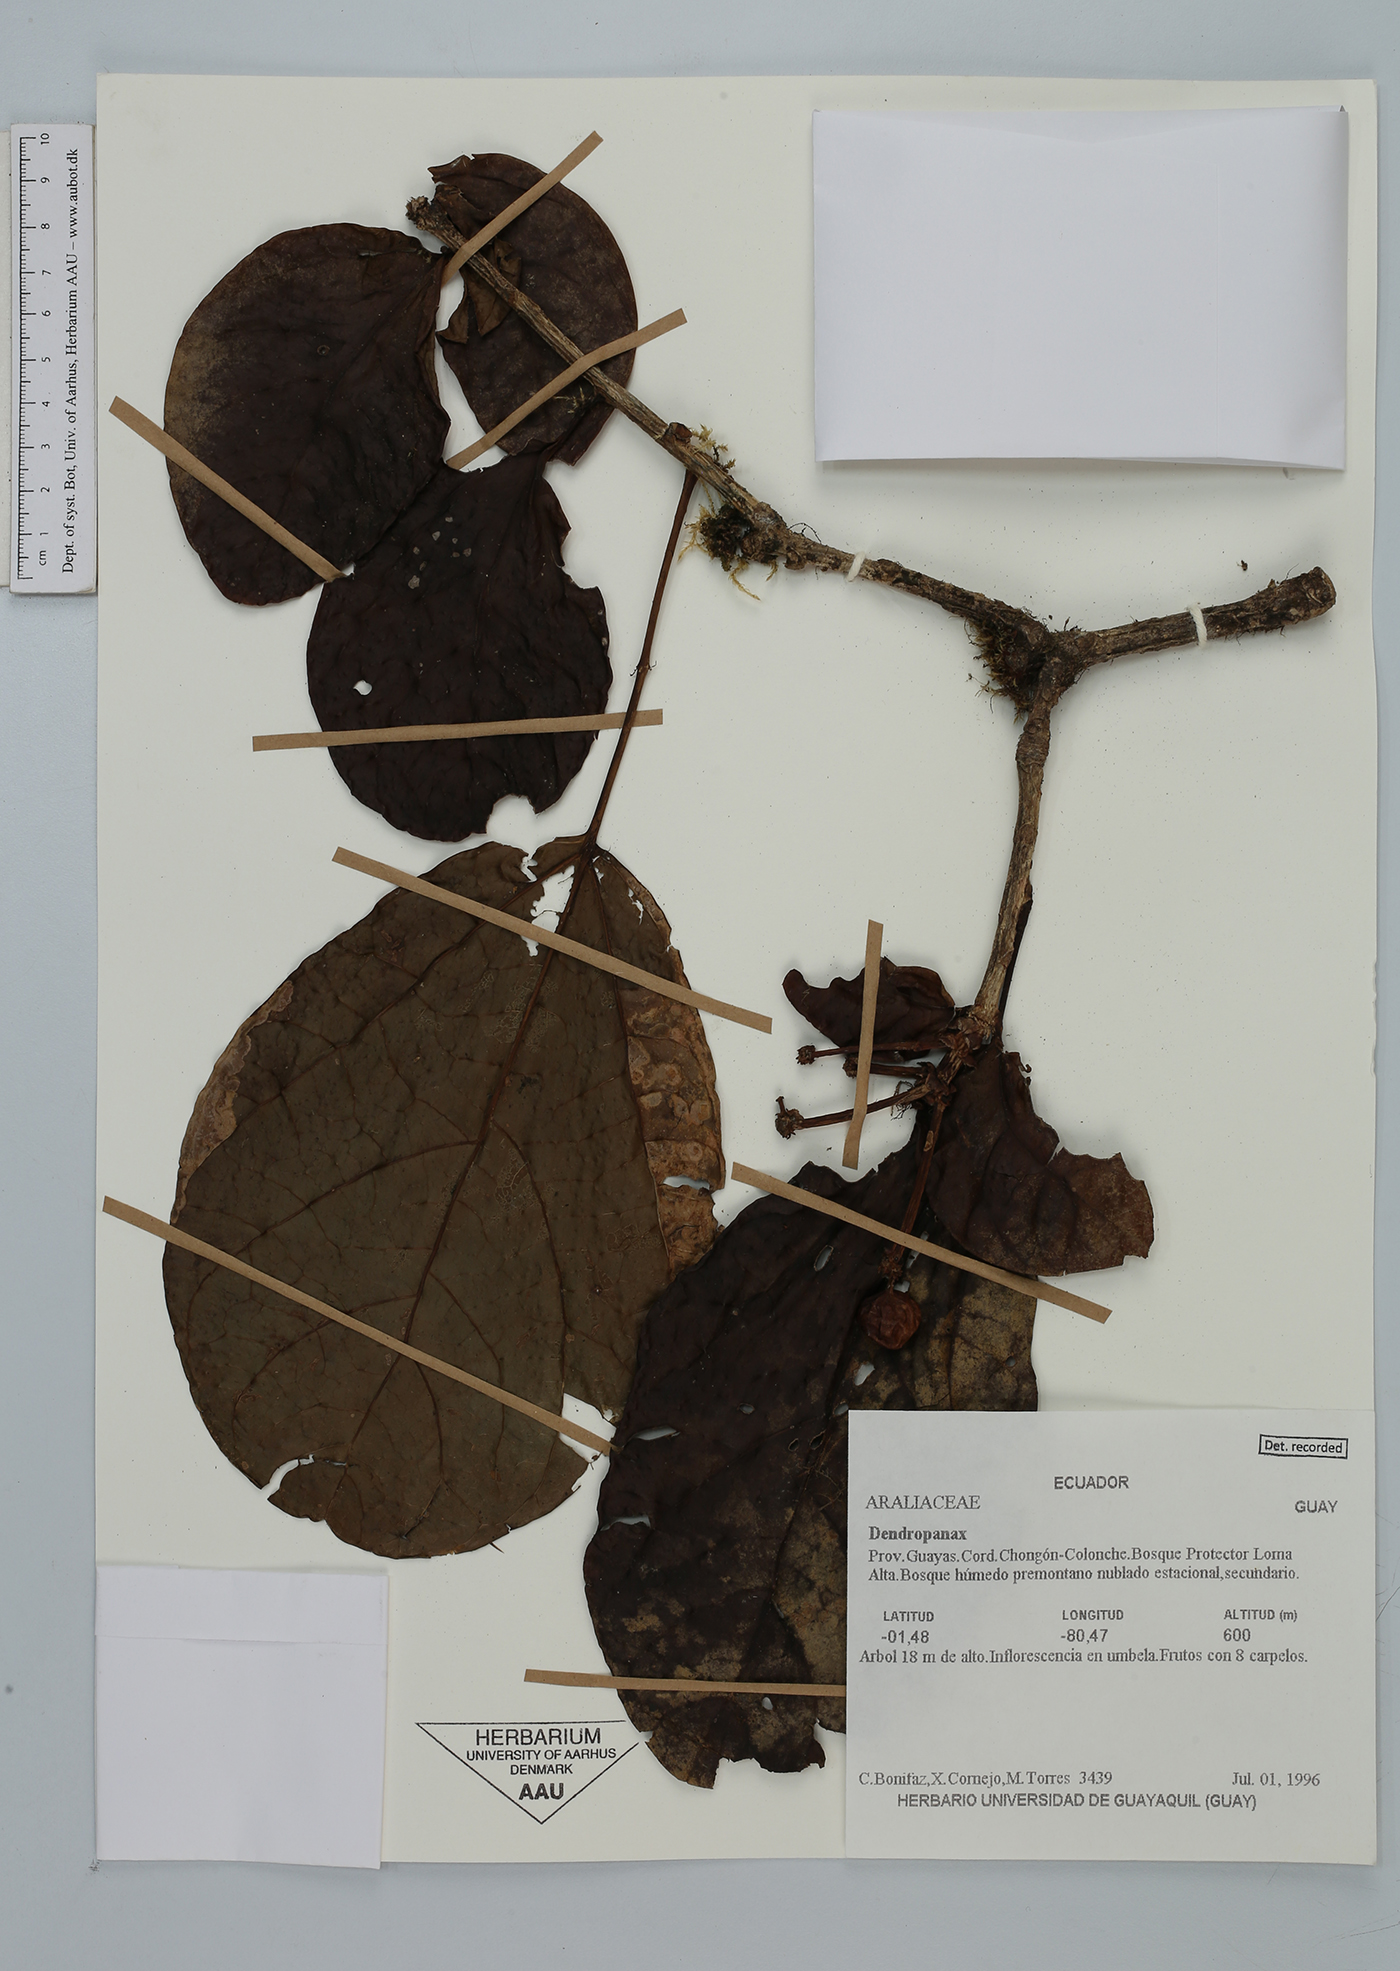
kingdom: Plantae
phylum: Tracheophyta
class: Magnoliopsida
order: Apiales
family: Araliaceae
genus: Dendropanax
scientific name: Dendropanax
